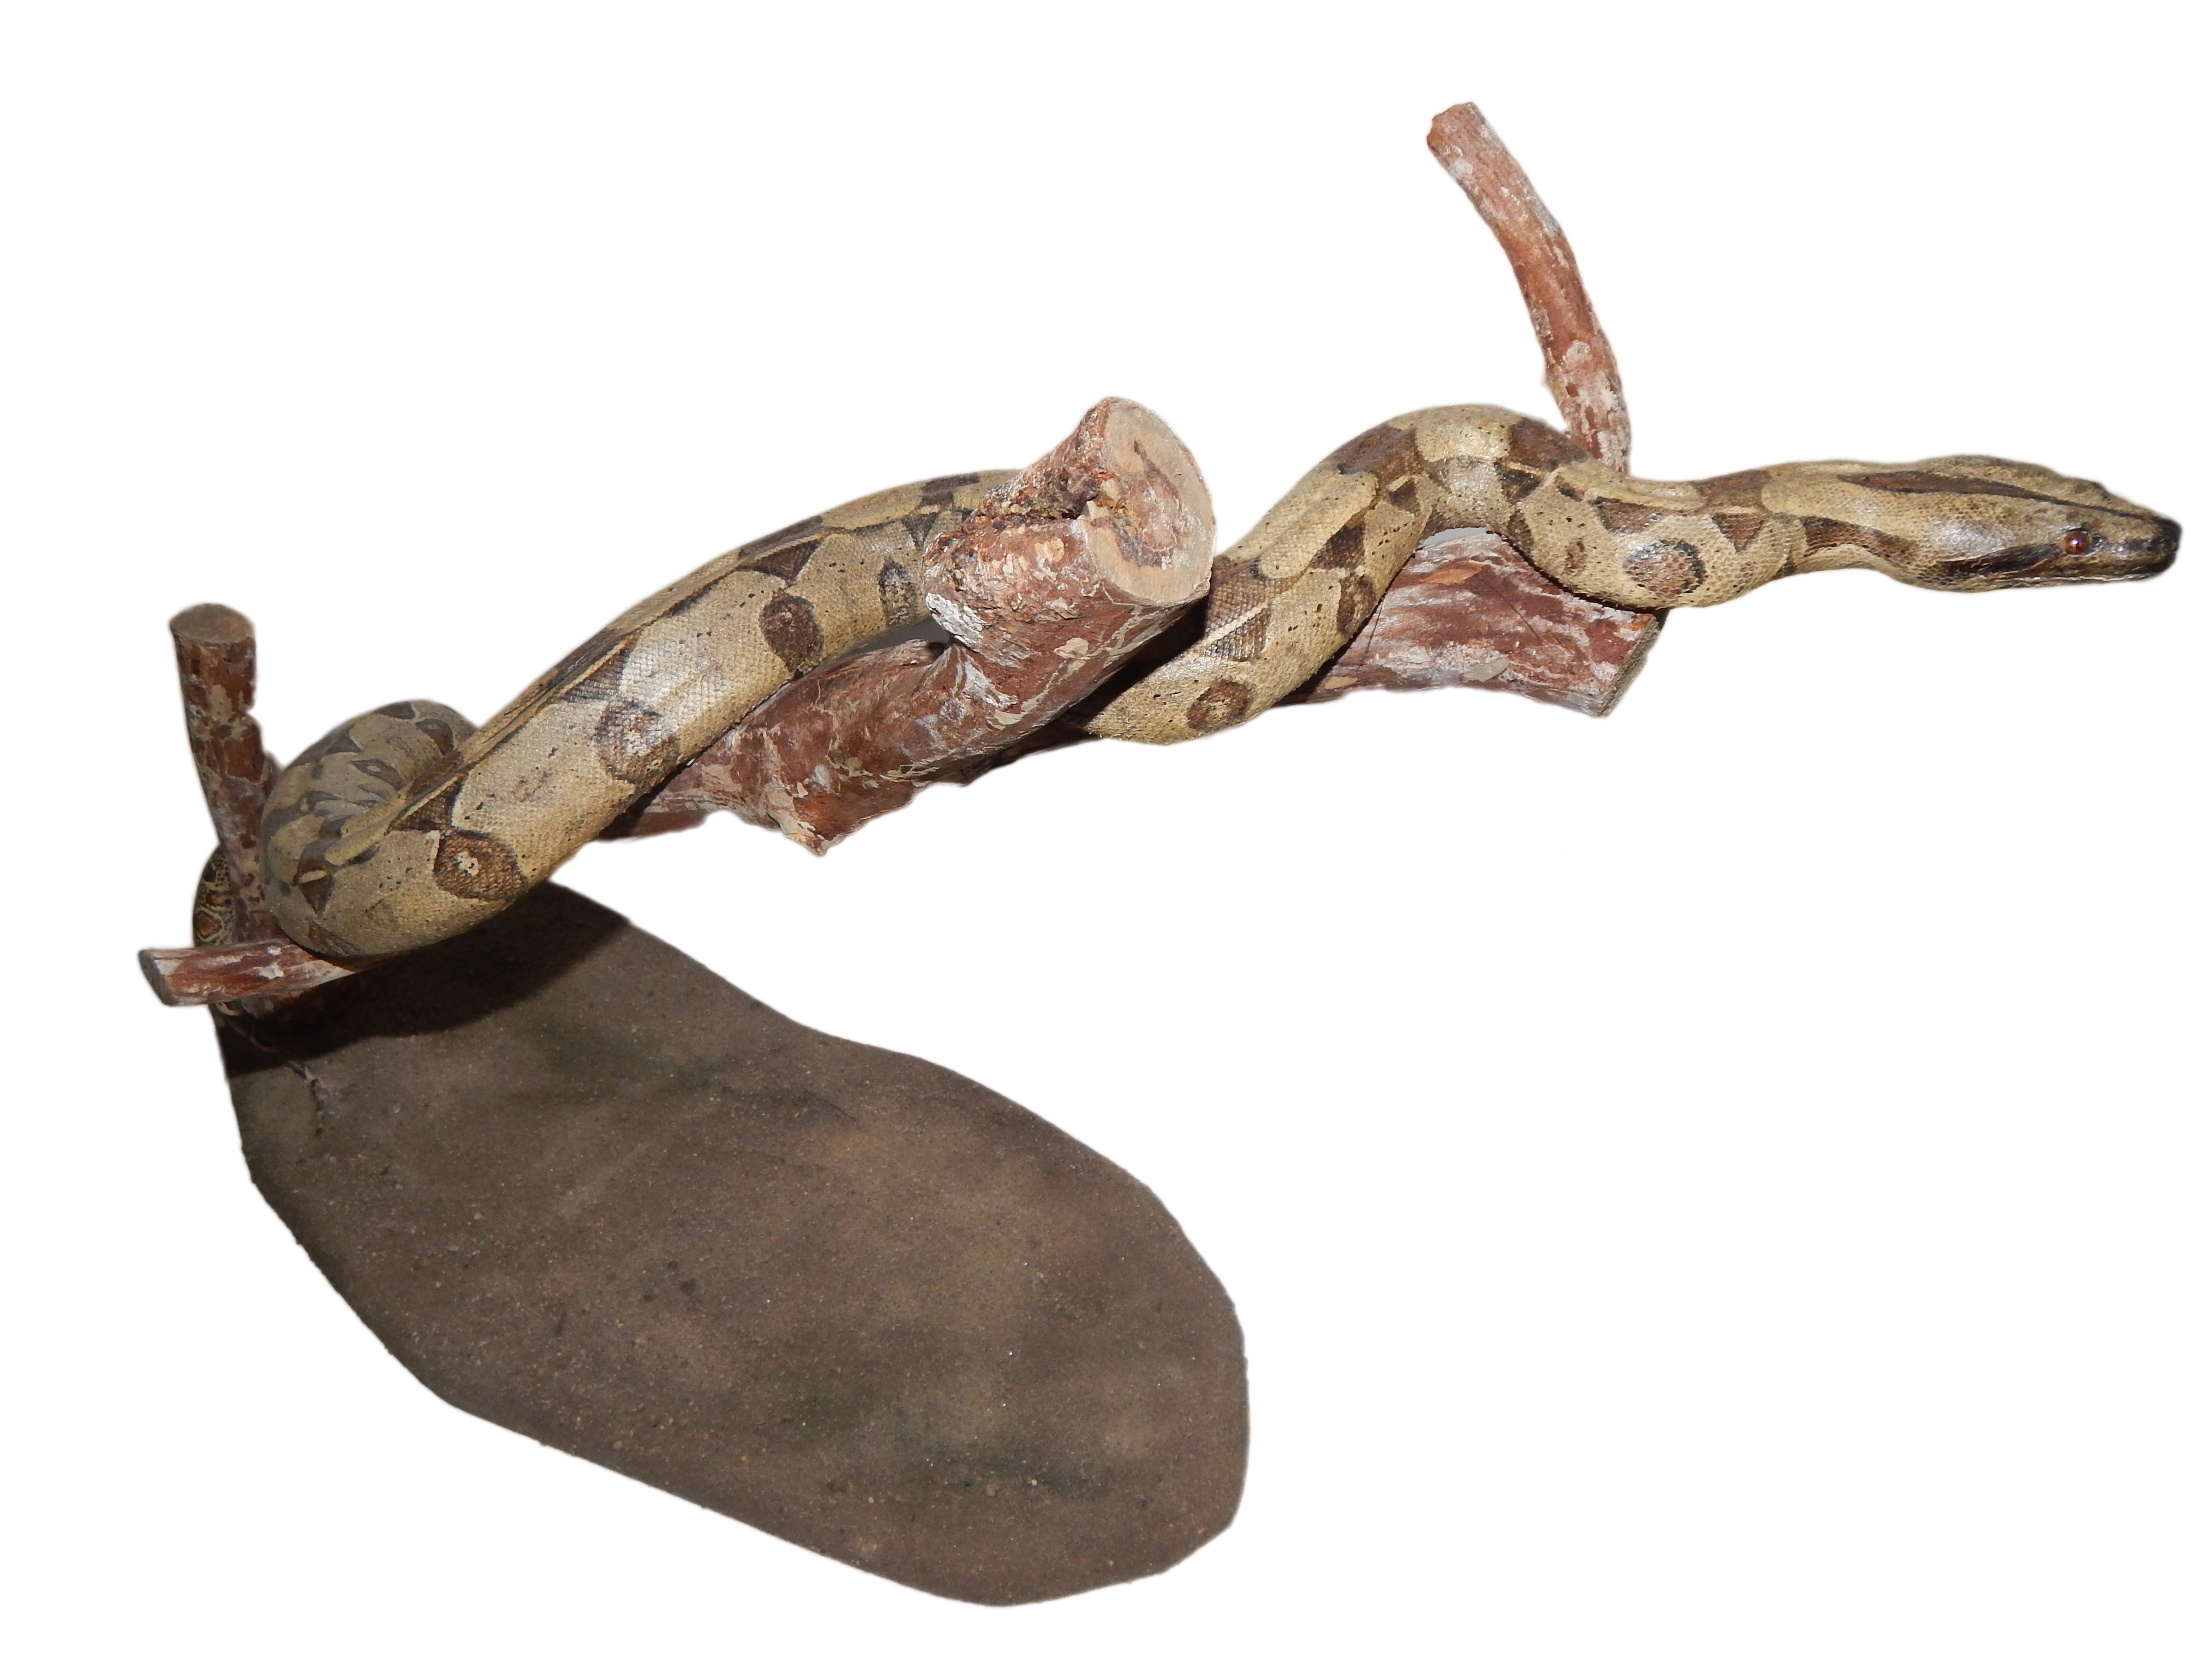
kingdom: Animalia
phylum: Chordata
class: Squamata
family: Boidae
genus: Boa
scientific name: Boa constrictor
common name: Boa constrictor
